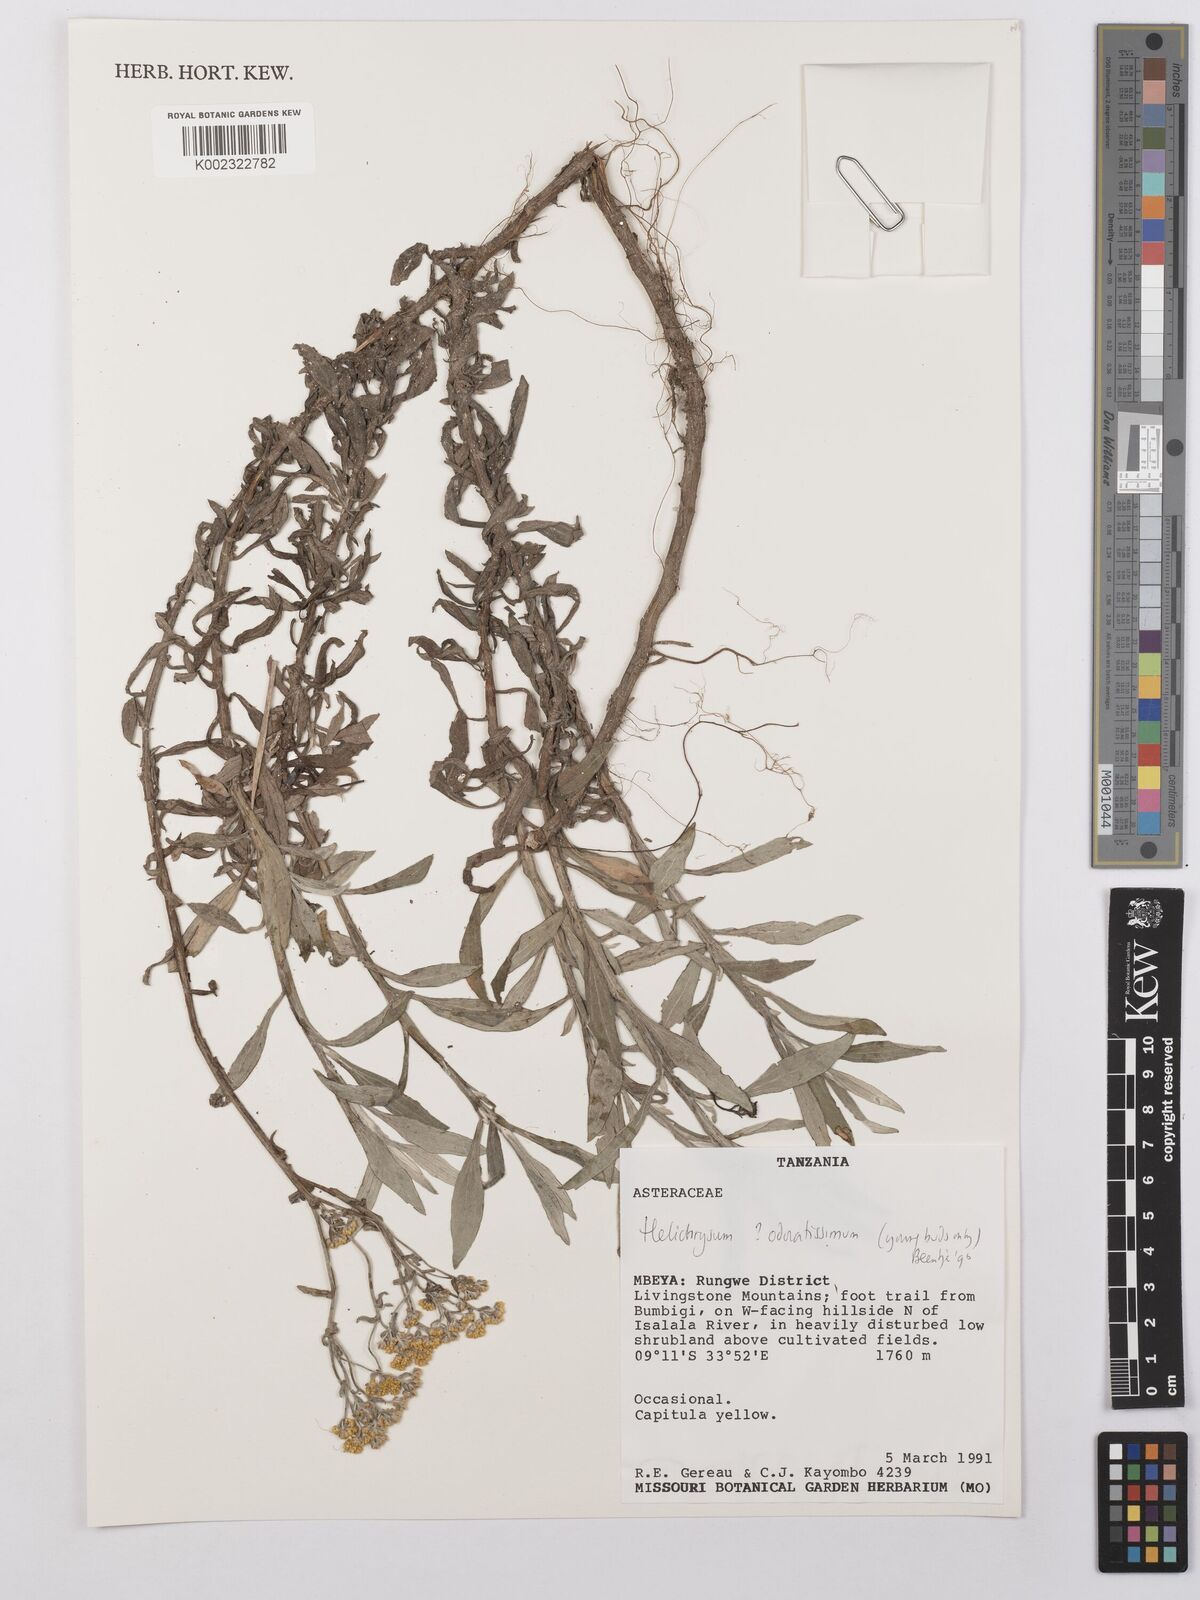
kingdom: Plantae
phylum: Tracheophyta
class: Magnoliopsida
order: Asterales
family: Asteraceae
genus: Helichrysum
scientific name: Helichrysum odoratissimum
